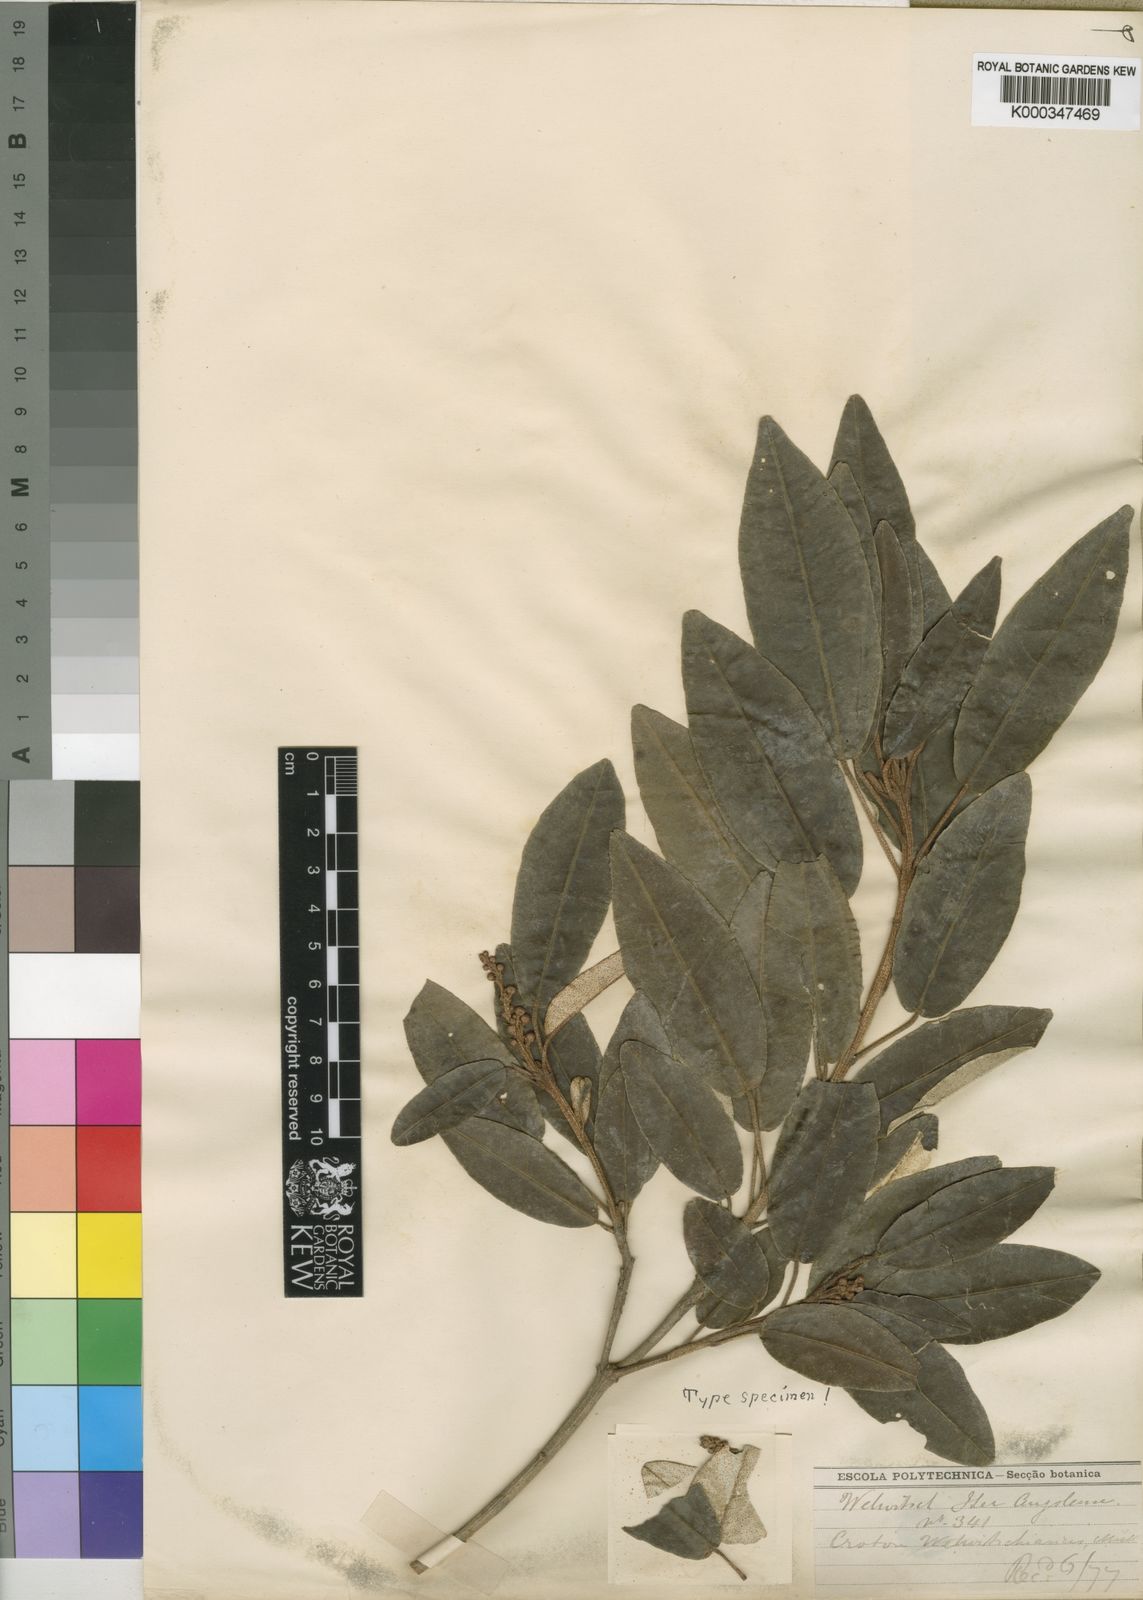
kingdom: Plantae
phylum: Tracheophyta
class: Magnoliopsida
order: Malpighiales
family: Euphorbiaceae
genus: Croton
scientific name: Croton gratissimus
